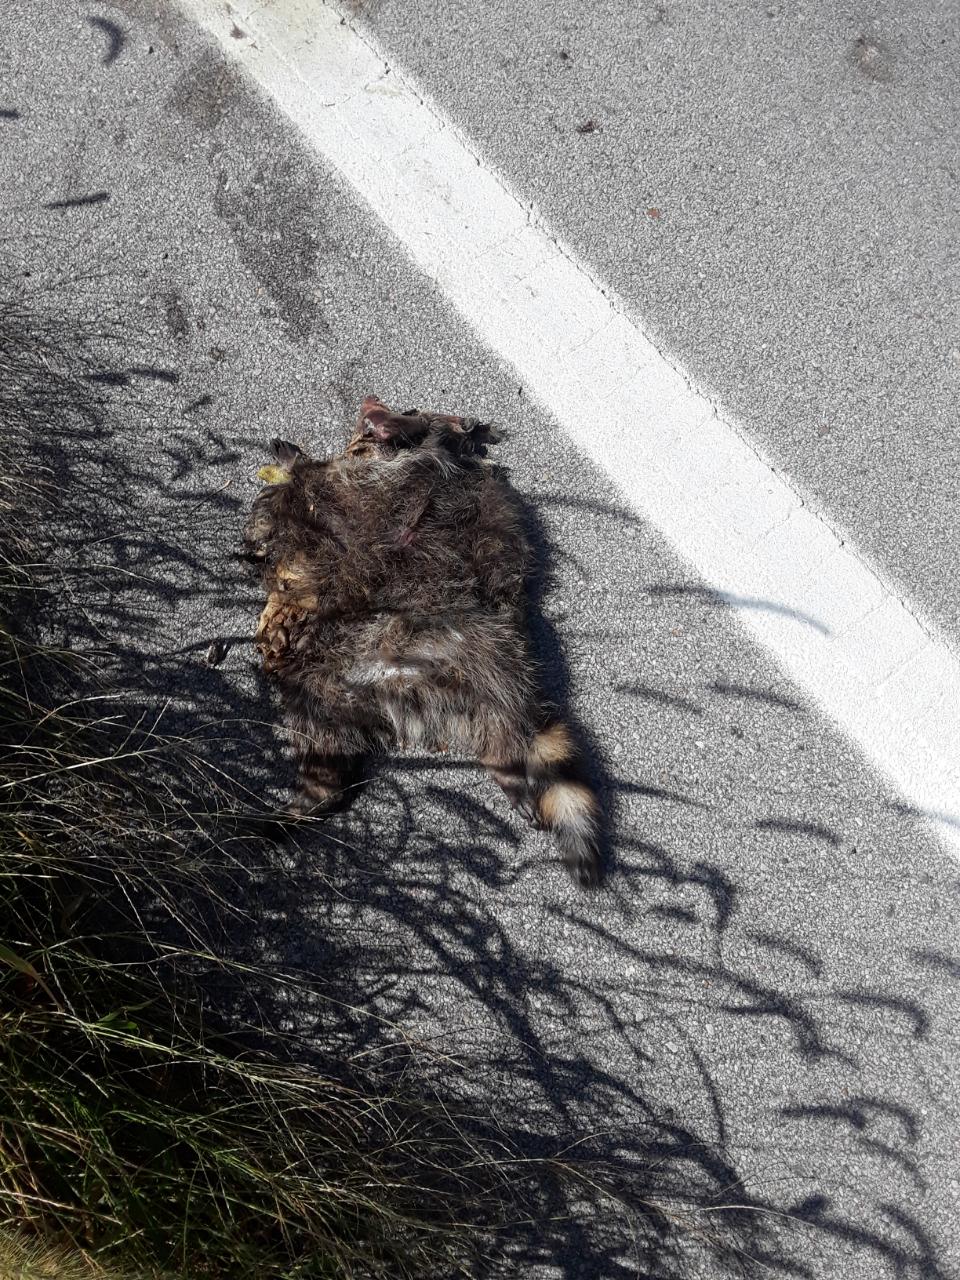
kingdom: Animalia
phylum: Chordata
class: Mammalia
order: Carnivora
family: Procyonidae
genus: Procyon
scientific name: Procyon lotor
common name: Raccoon
